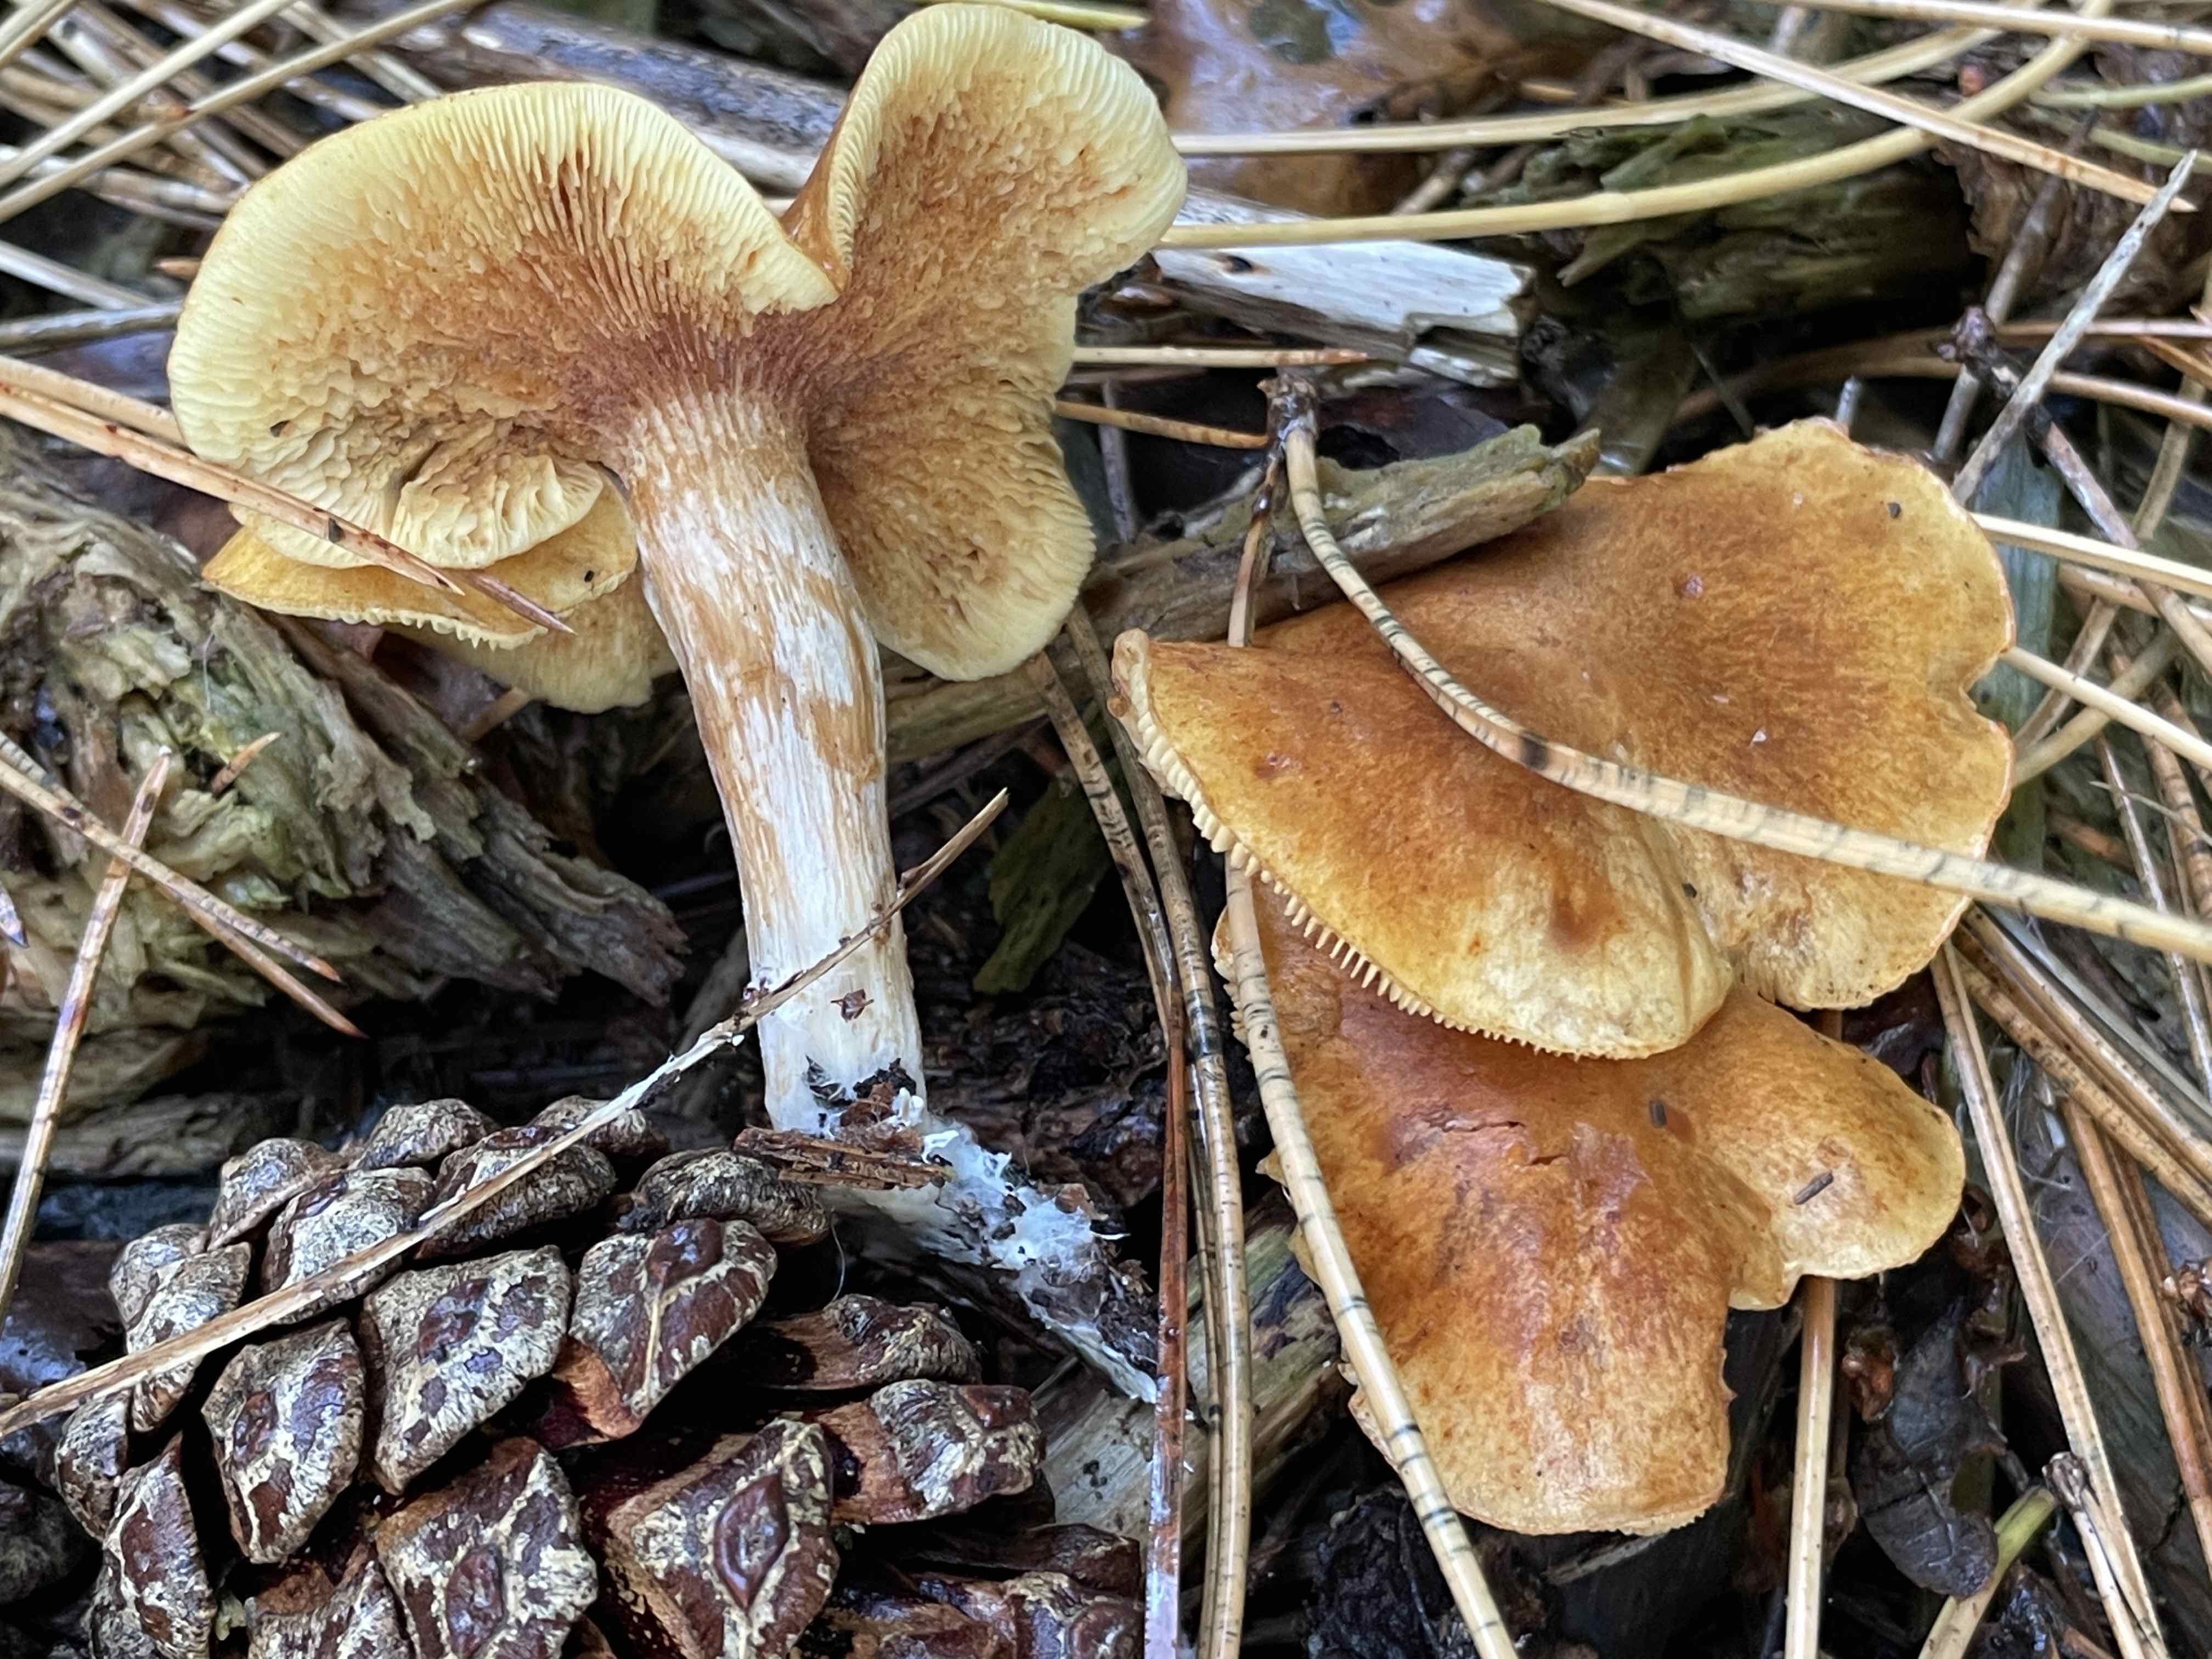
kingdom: Fungi
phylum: Basidiomycota
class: Agaricomycetes
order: Agaricales
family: Hymenogastraceae
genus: Gymnopilus
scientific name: Gymnopilus penetrans
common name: plettet flammehat
